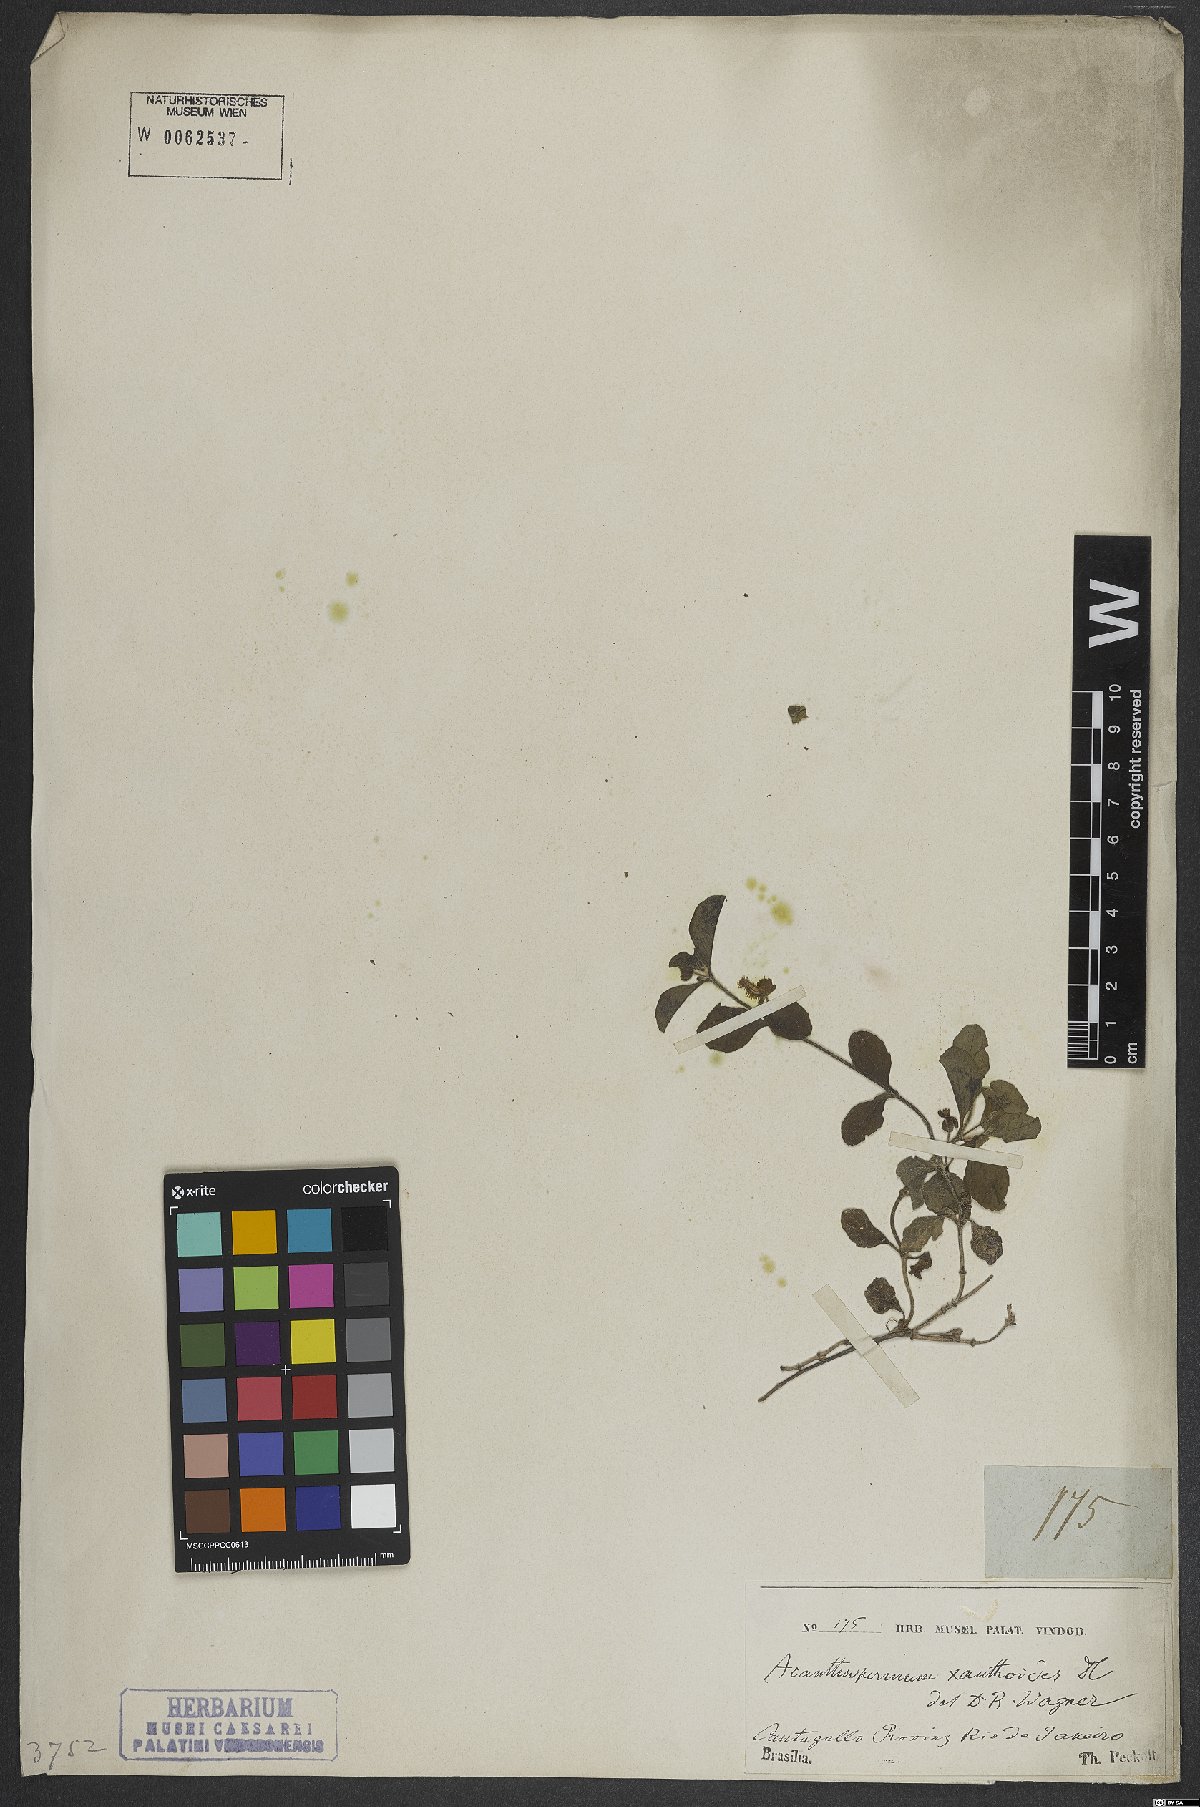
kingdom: Plantae
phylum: Tracheophyta
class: Magnoliopsida
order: Asterales
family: Asteraceae
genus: Acanthospermum
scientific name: Acanthospermum australe
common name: Paraguayan starbur
